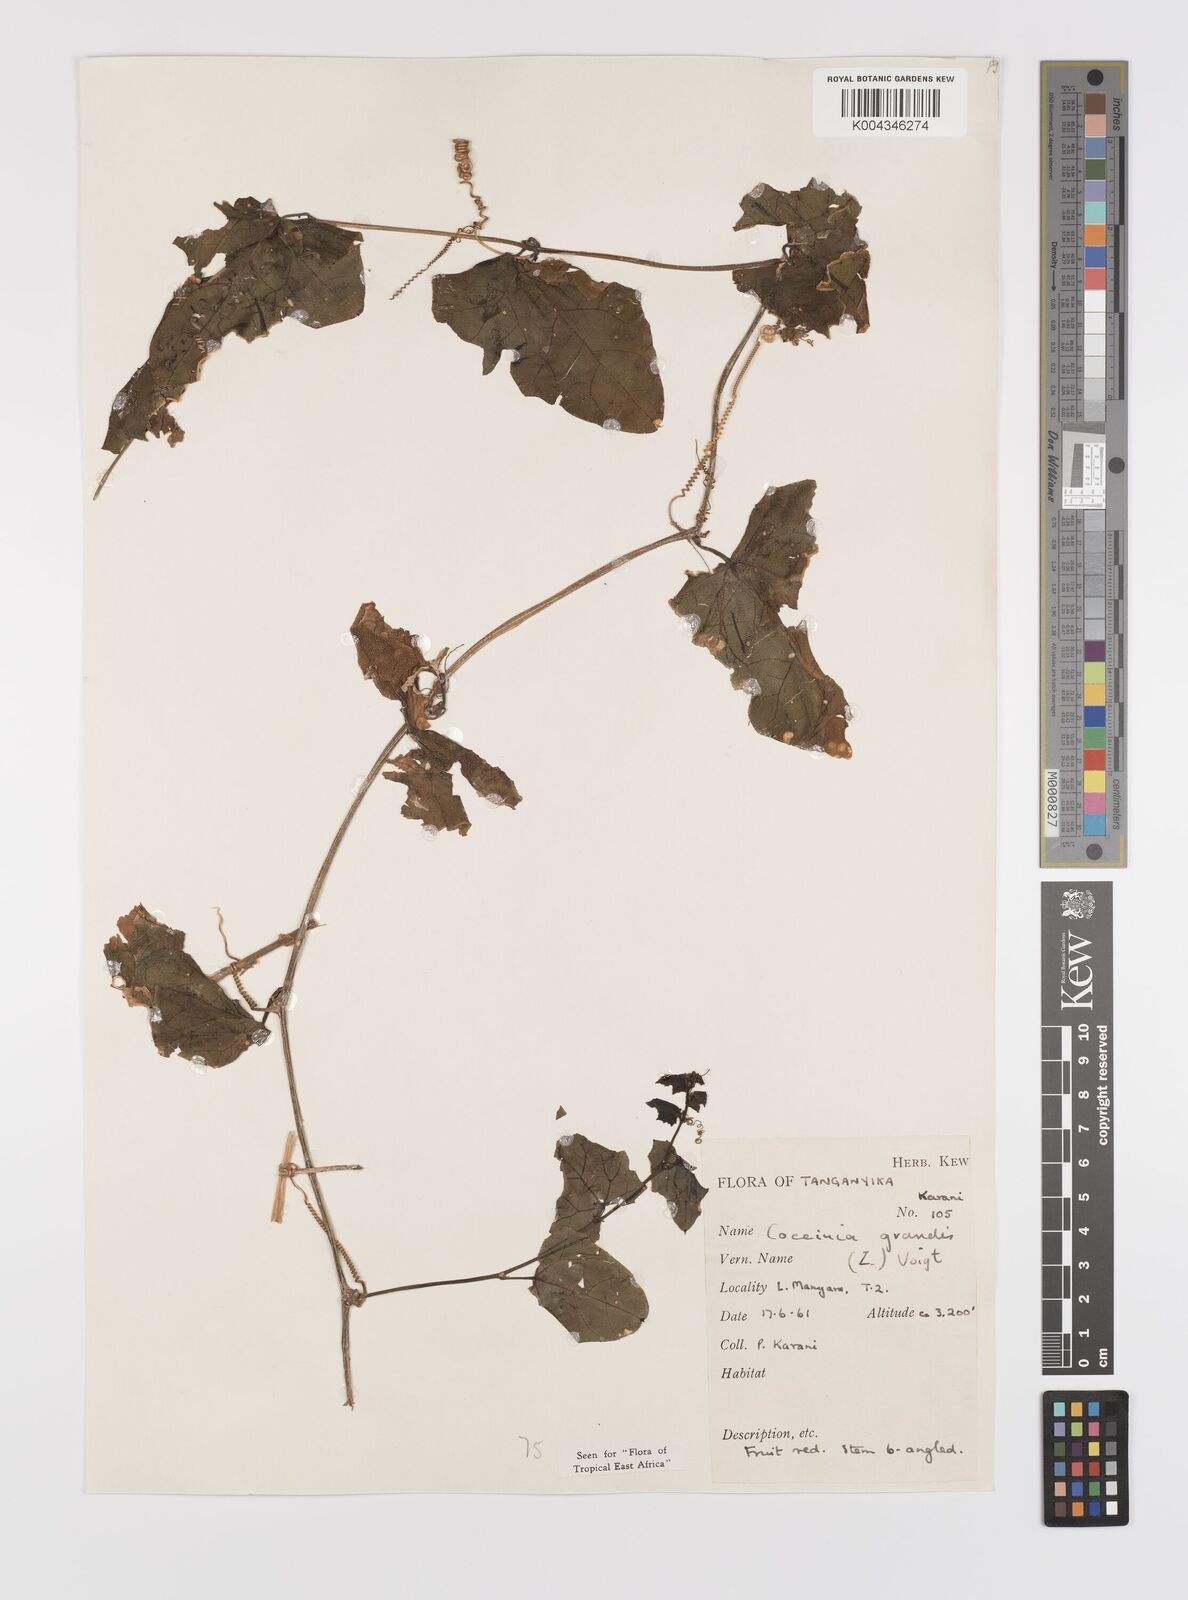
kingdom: Plantae
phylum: Tracheophyta
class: Magnoliopsida
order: Cucurbitales
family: Cucurbitaceae
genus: Coccinia
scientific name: Coccinia grandis
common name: Ivy gourd
